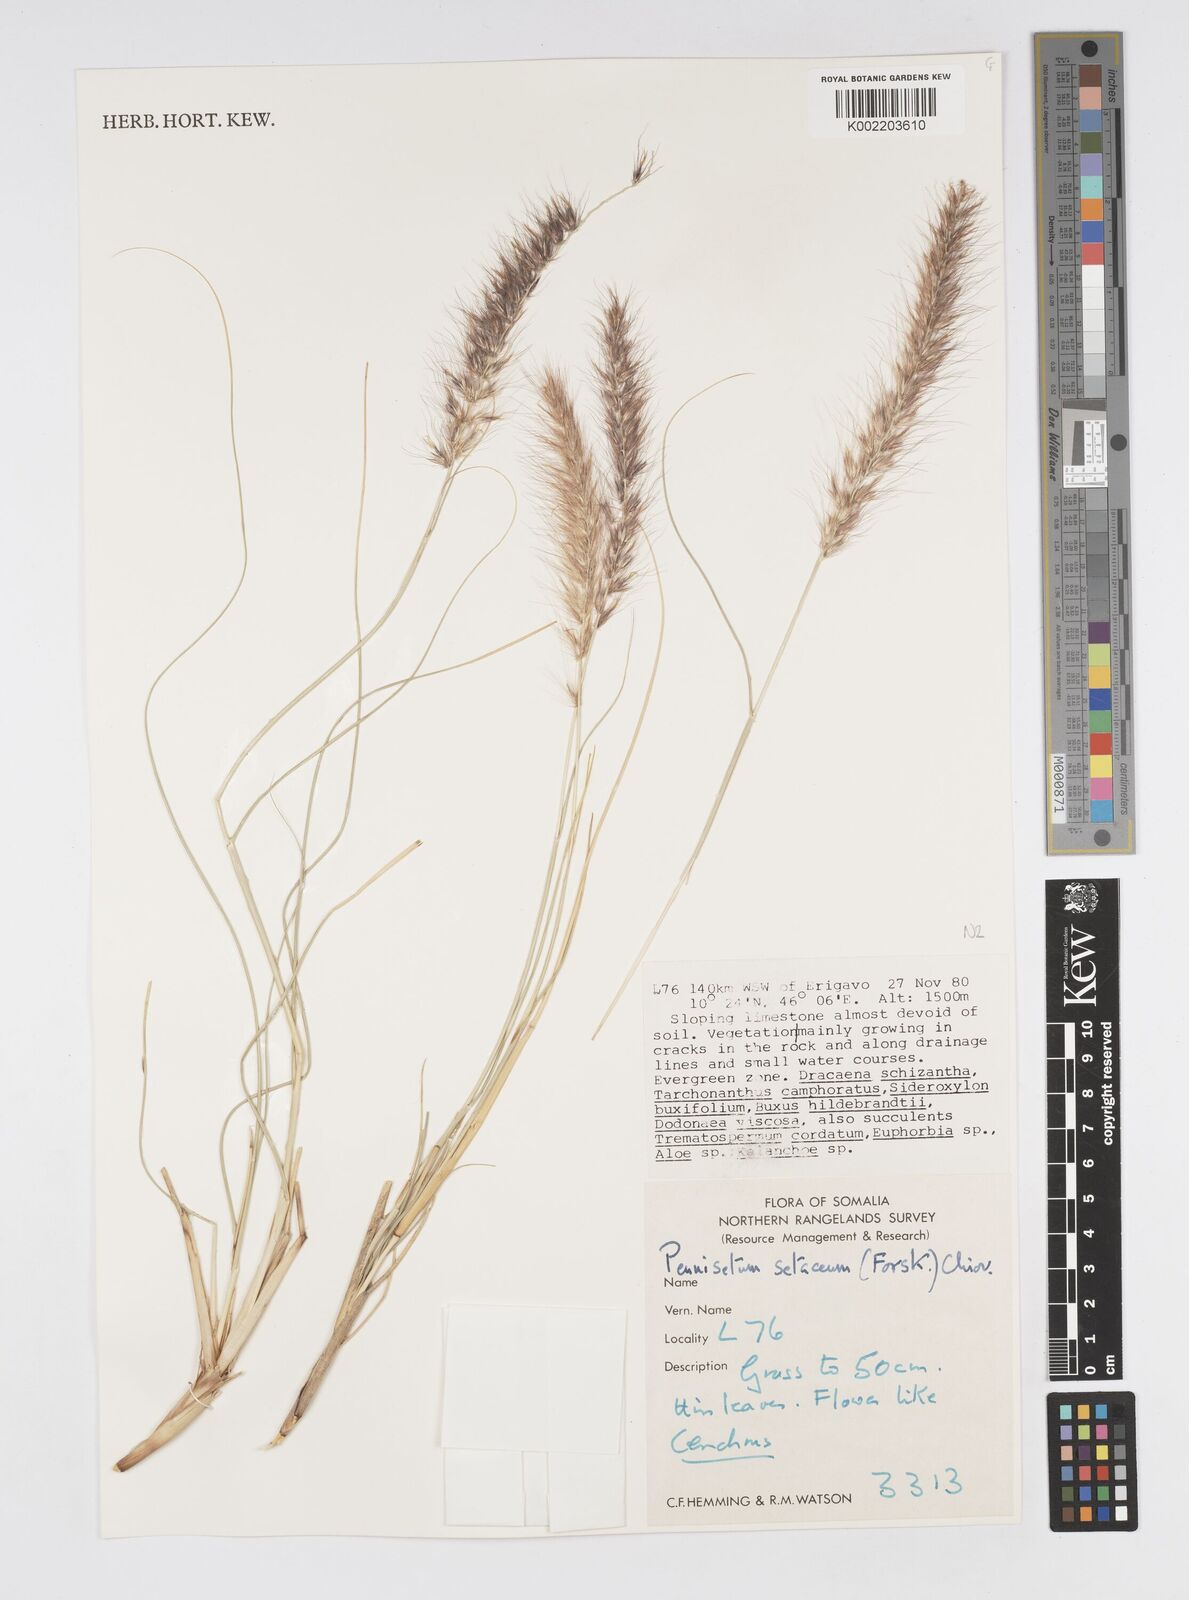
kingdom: Plantae
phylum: Tracheophyta
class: Liliopsida
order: Poales
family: Poaceae
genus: Cenchrus
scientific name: Cenchrus setaceus
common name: Crimson fountaingrass
